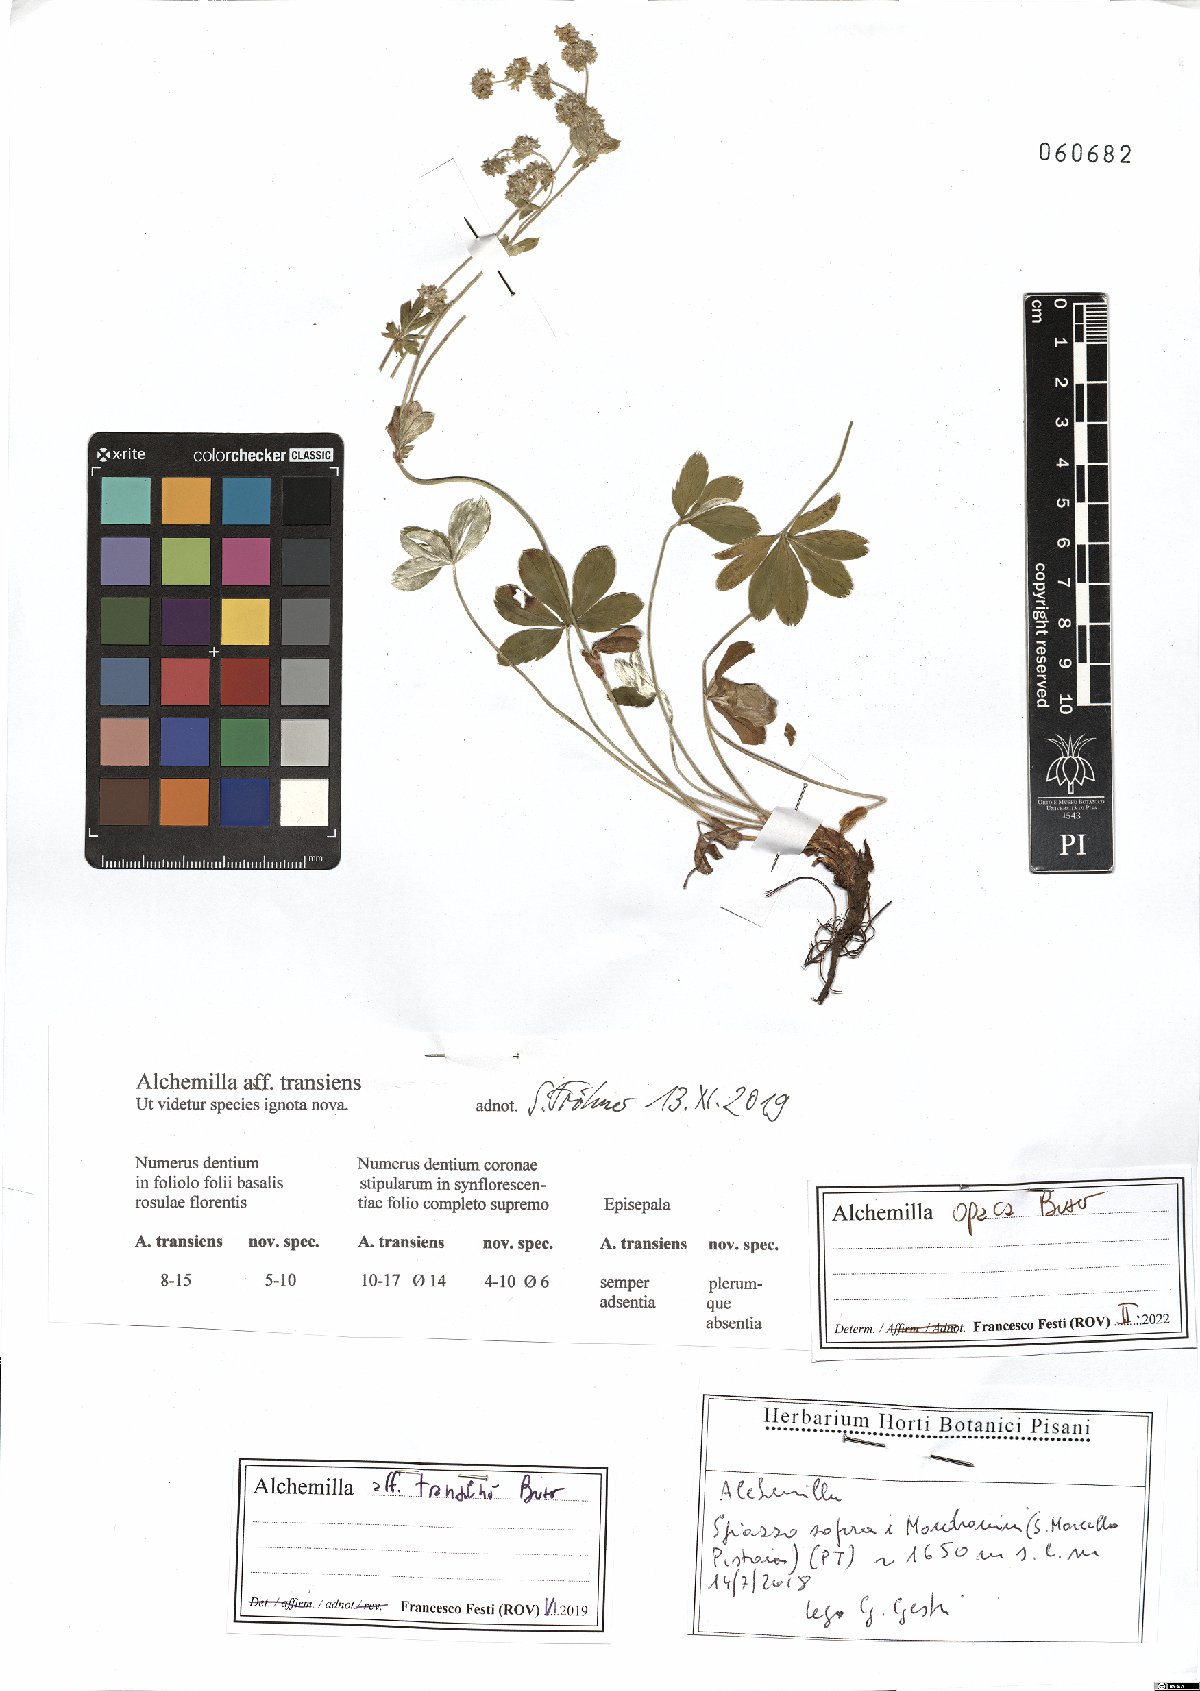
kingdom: Plantae
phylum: Tracheophyta
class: Magnoliopsida
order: Rosales
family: Rosaceae
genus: Alchemilla
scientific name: Alchemilla opaca
